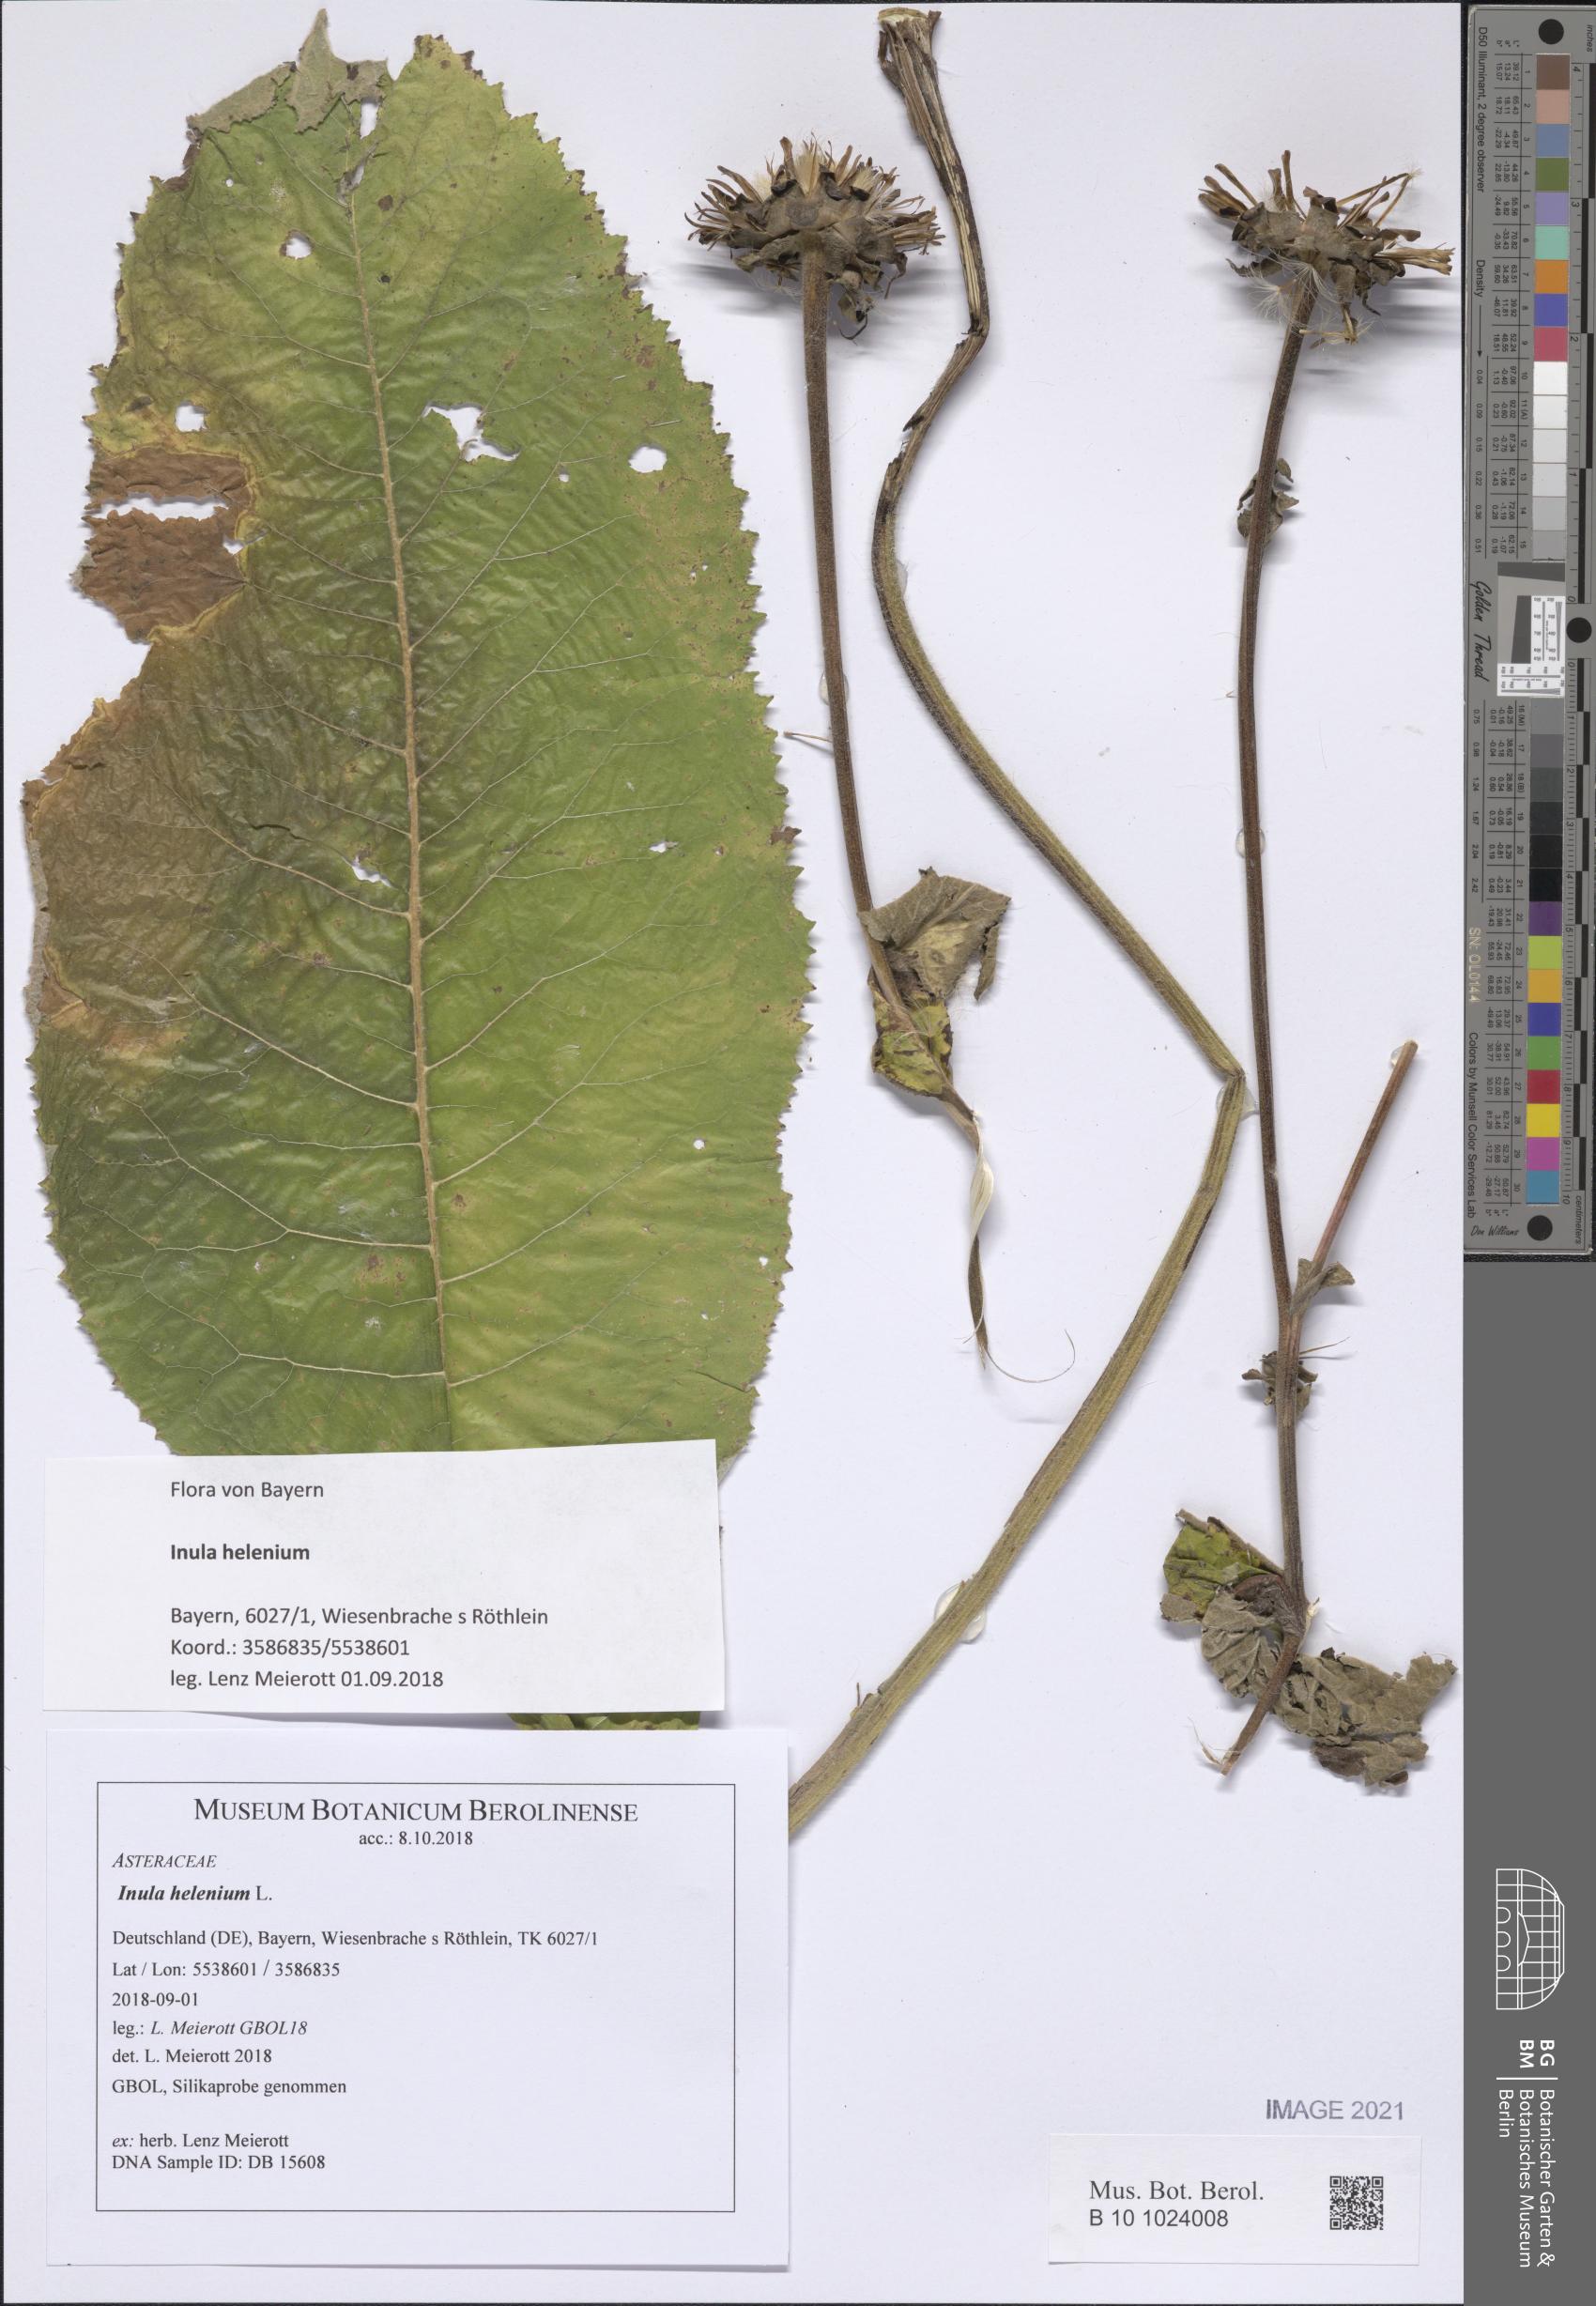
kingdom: Plantae
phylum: Tracheophyta
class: Magnoliopsida
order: Asterales
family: Asteraceae
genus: Inula
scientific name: Inula helenium
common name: Elecampane
